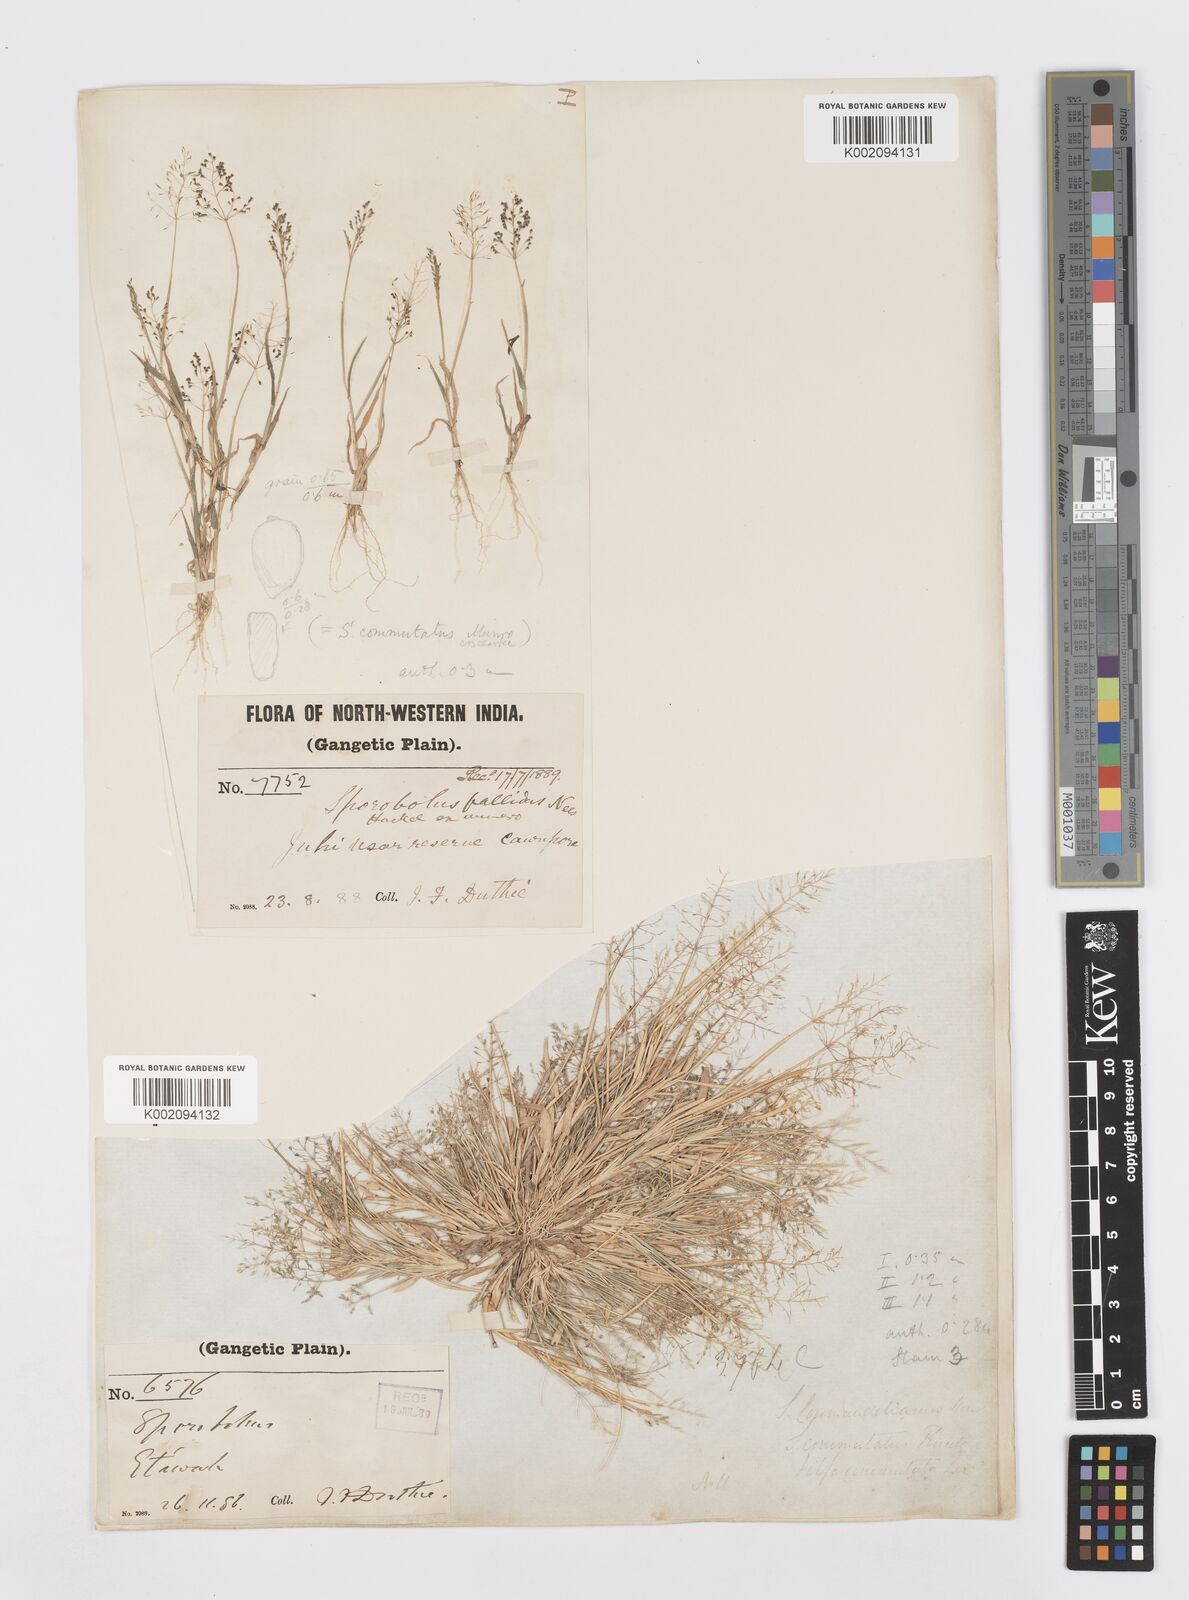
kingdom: Plantae
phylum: Tracheophyta
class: Liliopsida
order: Poales
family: Poaceae
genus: Sporobolus
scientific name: Sporobolus coromandelianus
